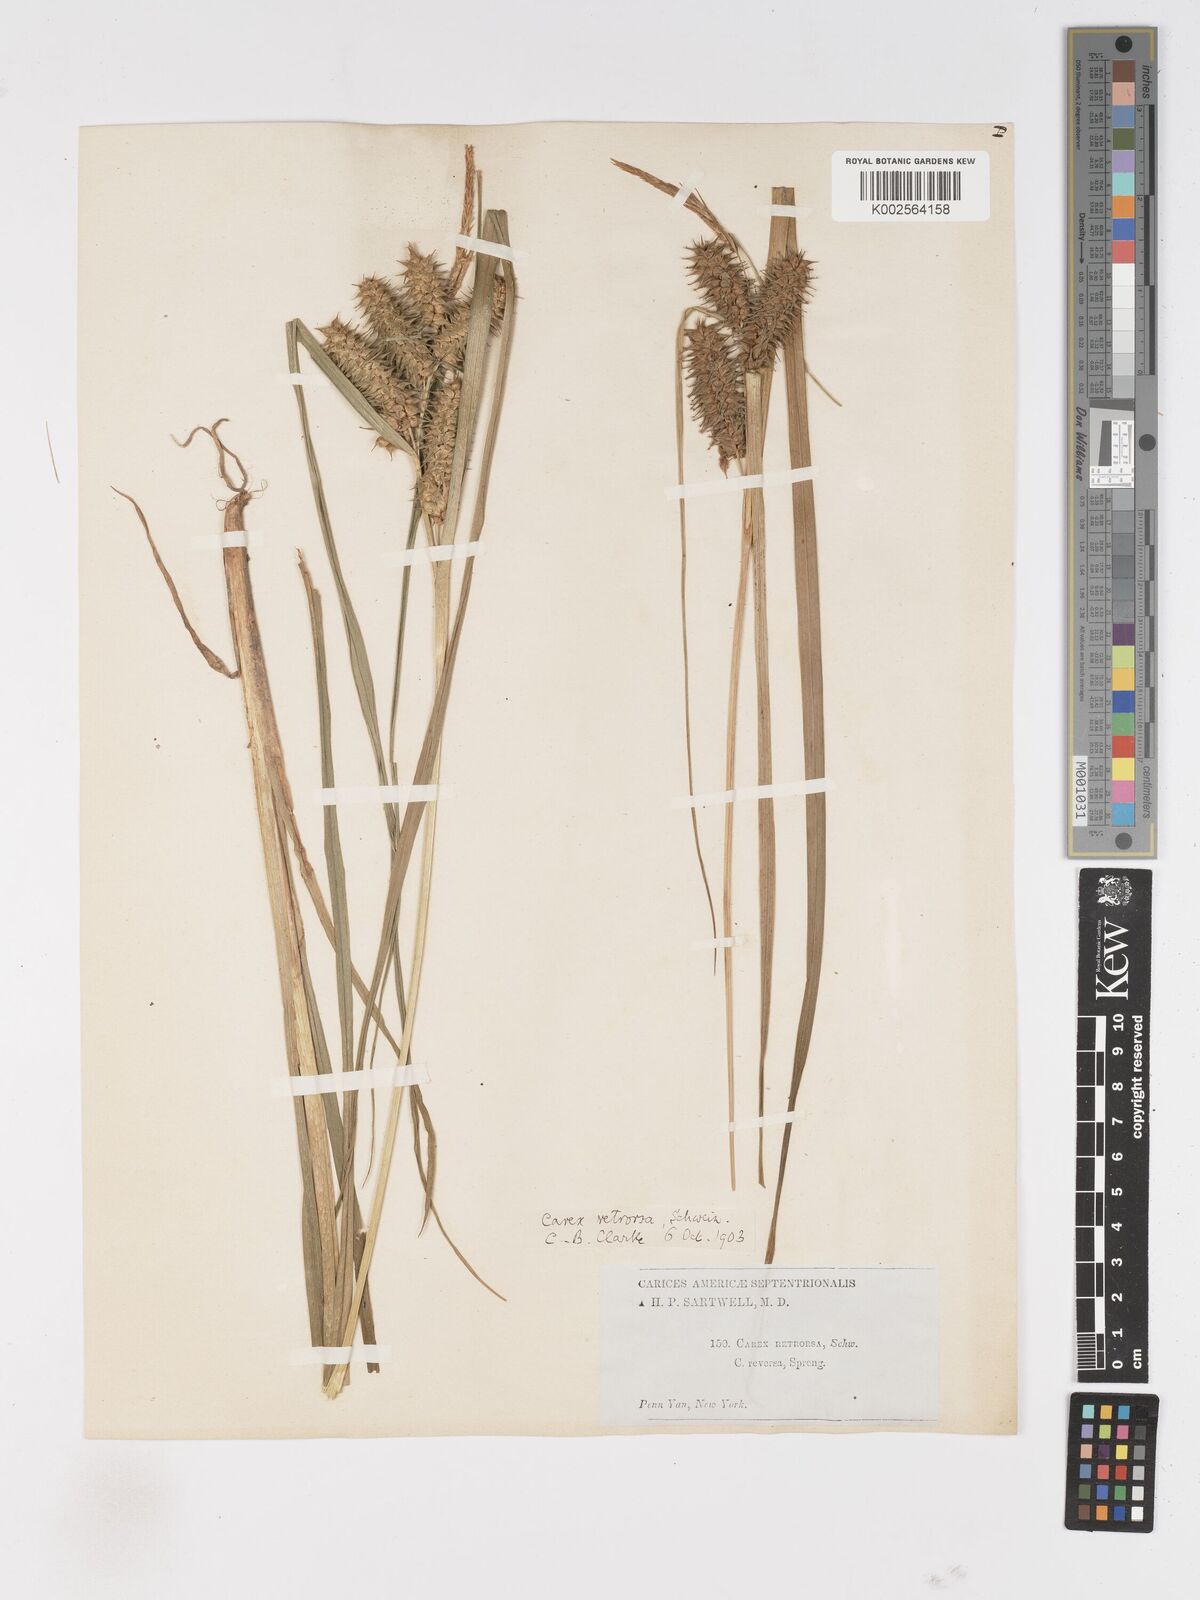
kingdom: Plantae
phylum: Tracheophyta
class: Liliopsida
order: Poales
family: Cyperaceae
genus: Carex
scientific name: Carex retrorsa
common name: Knot-sheath sedge
